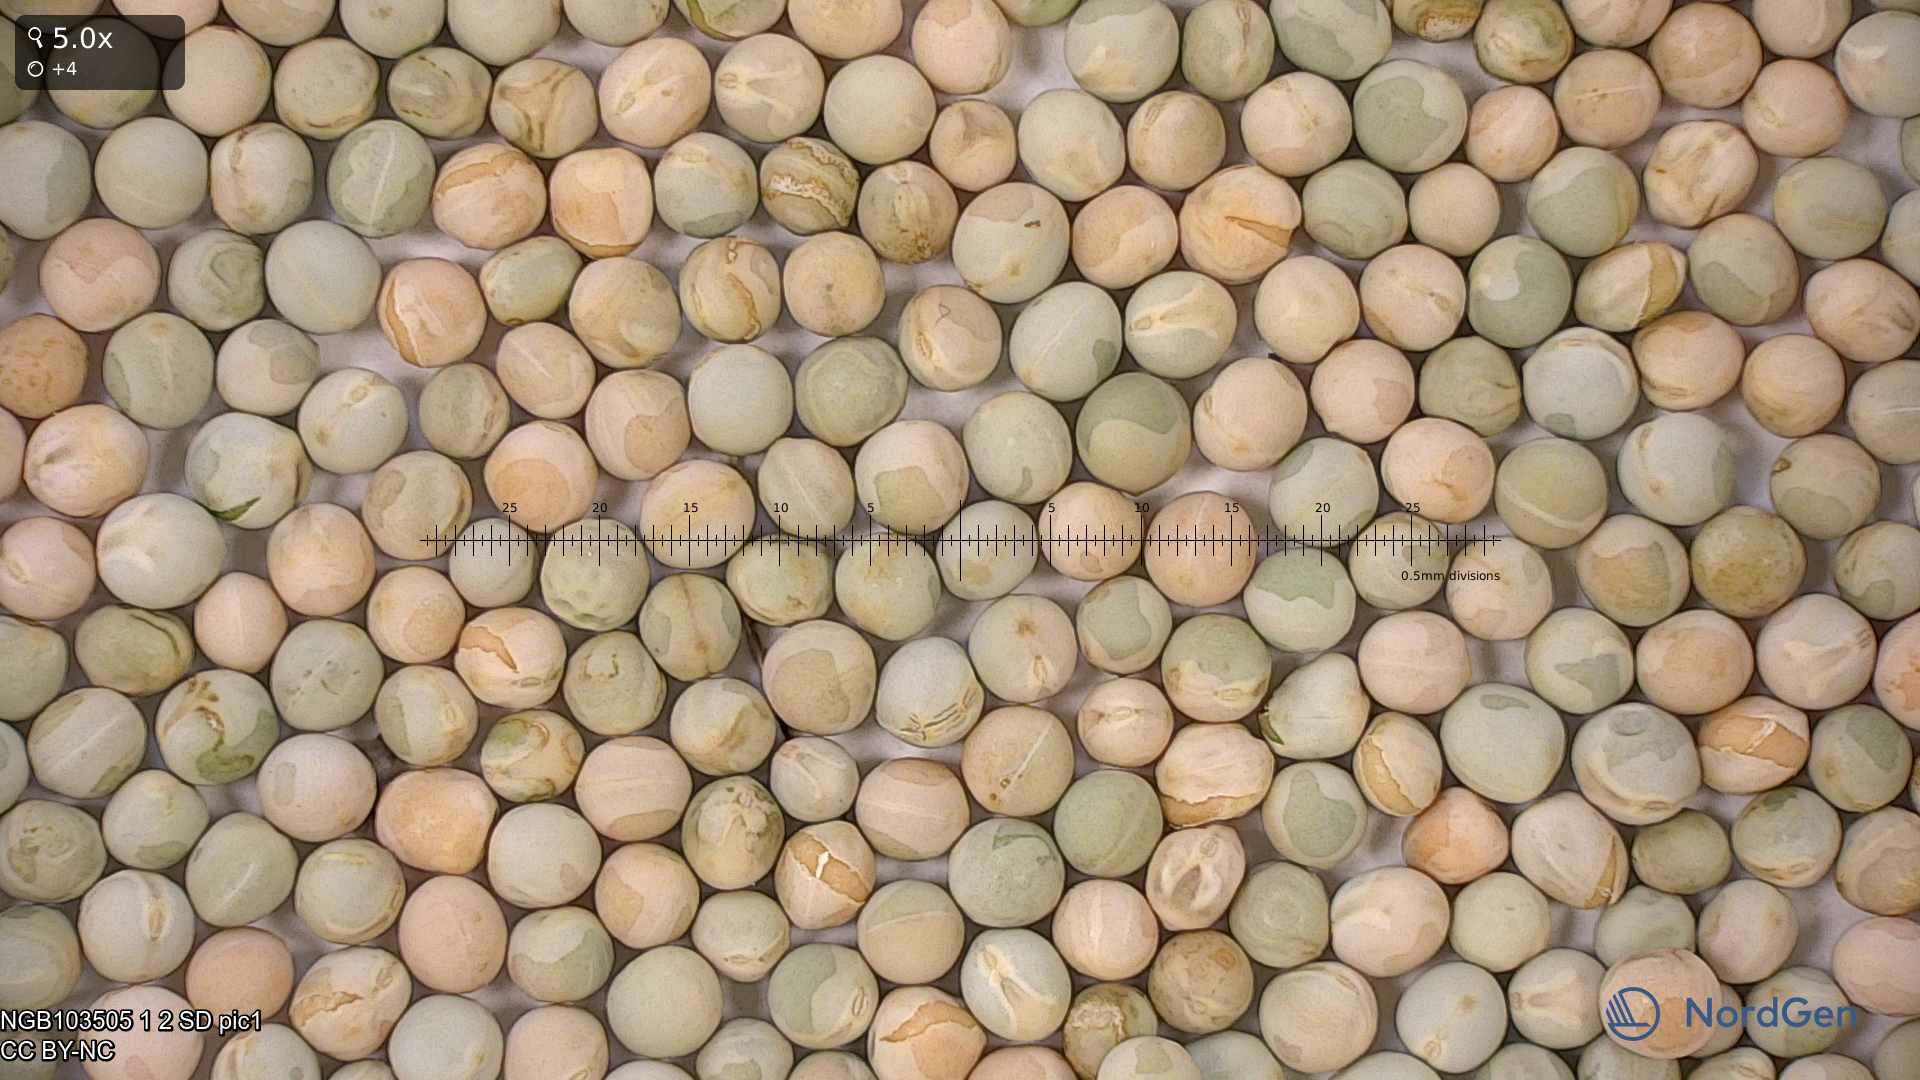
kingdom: Plantae
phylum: Tracheophyta
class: Magnoliopsida
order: Fabales
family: Fabaceae
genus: Lathyrus
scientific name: Lathyrus oleraceus
